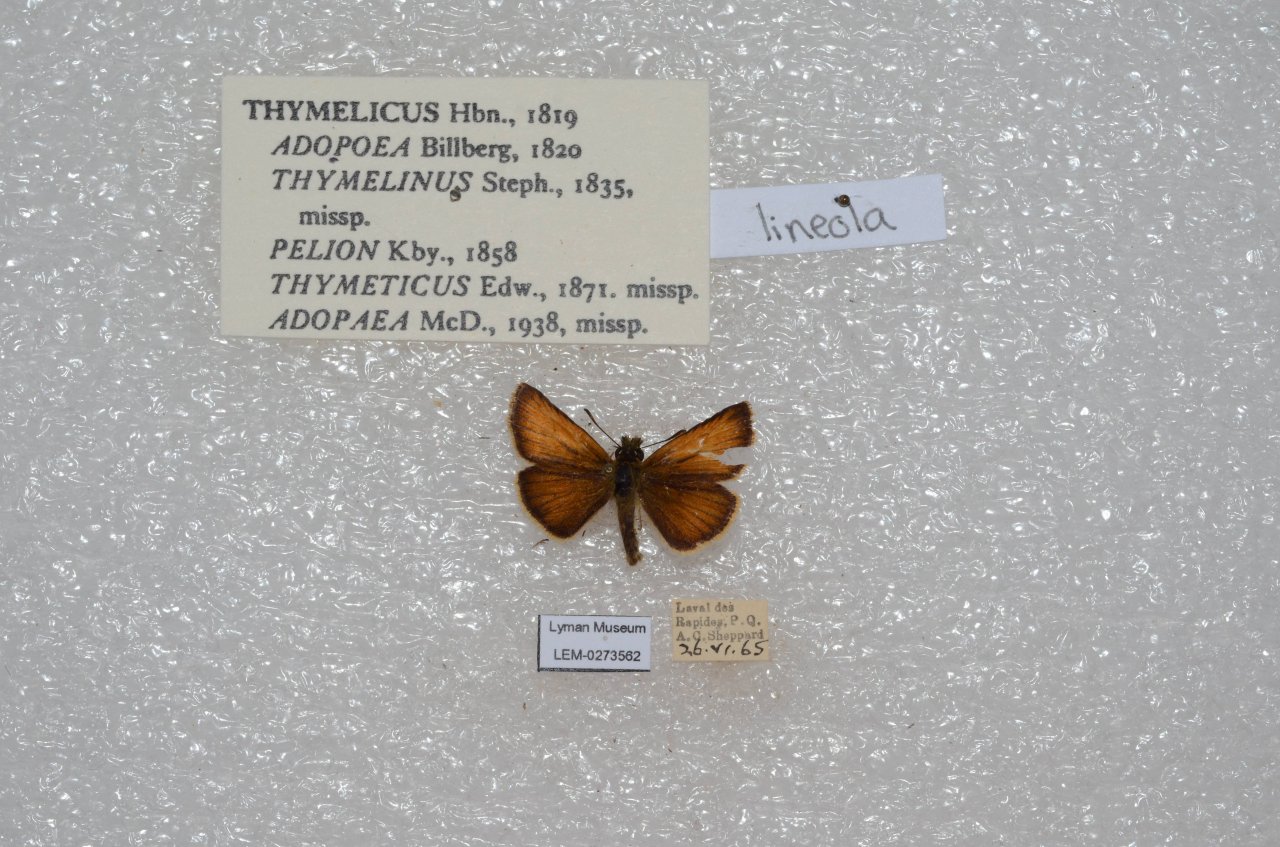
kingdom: Animalia
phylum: Arthropoda
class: Insecta
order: Lepidoptera
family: Hesperiidae
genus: Thymelicus
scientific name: Thymelicus lineola
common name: European Skipper
